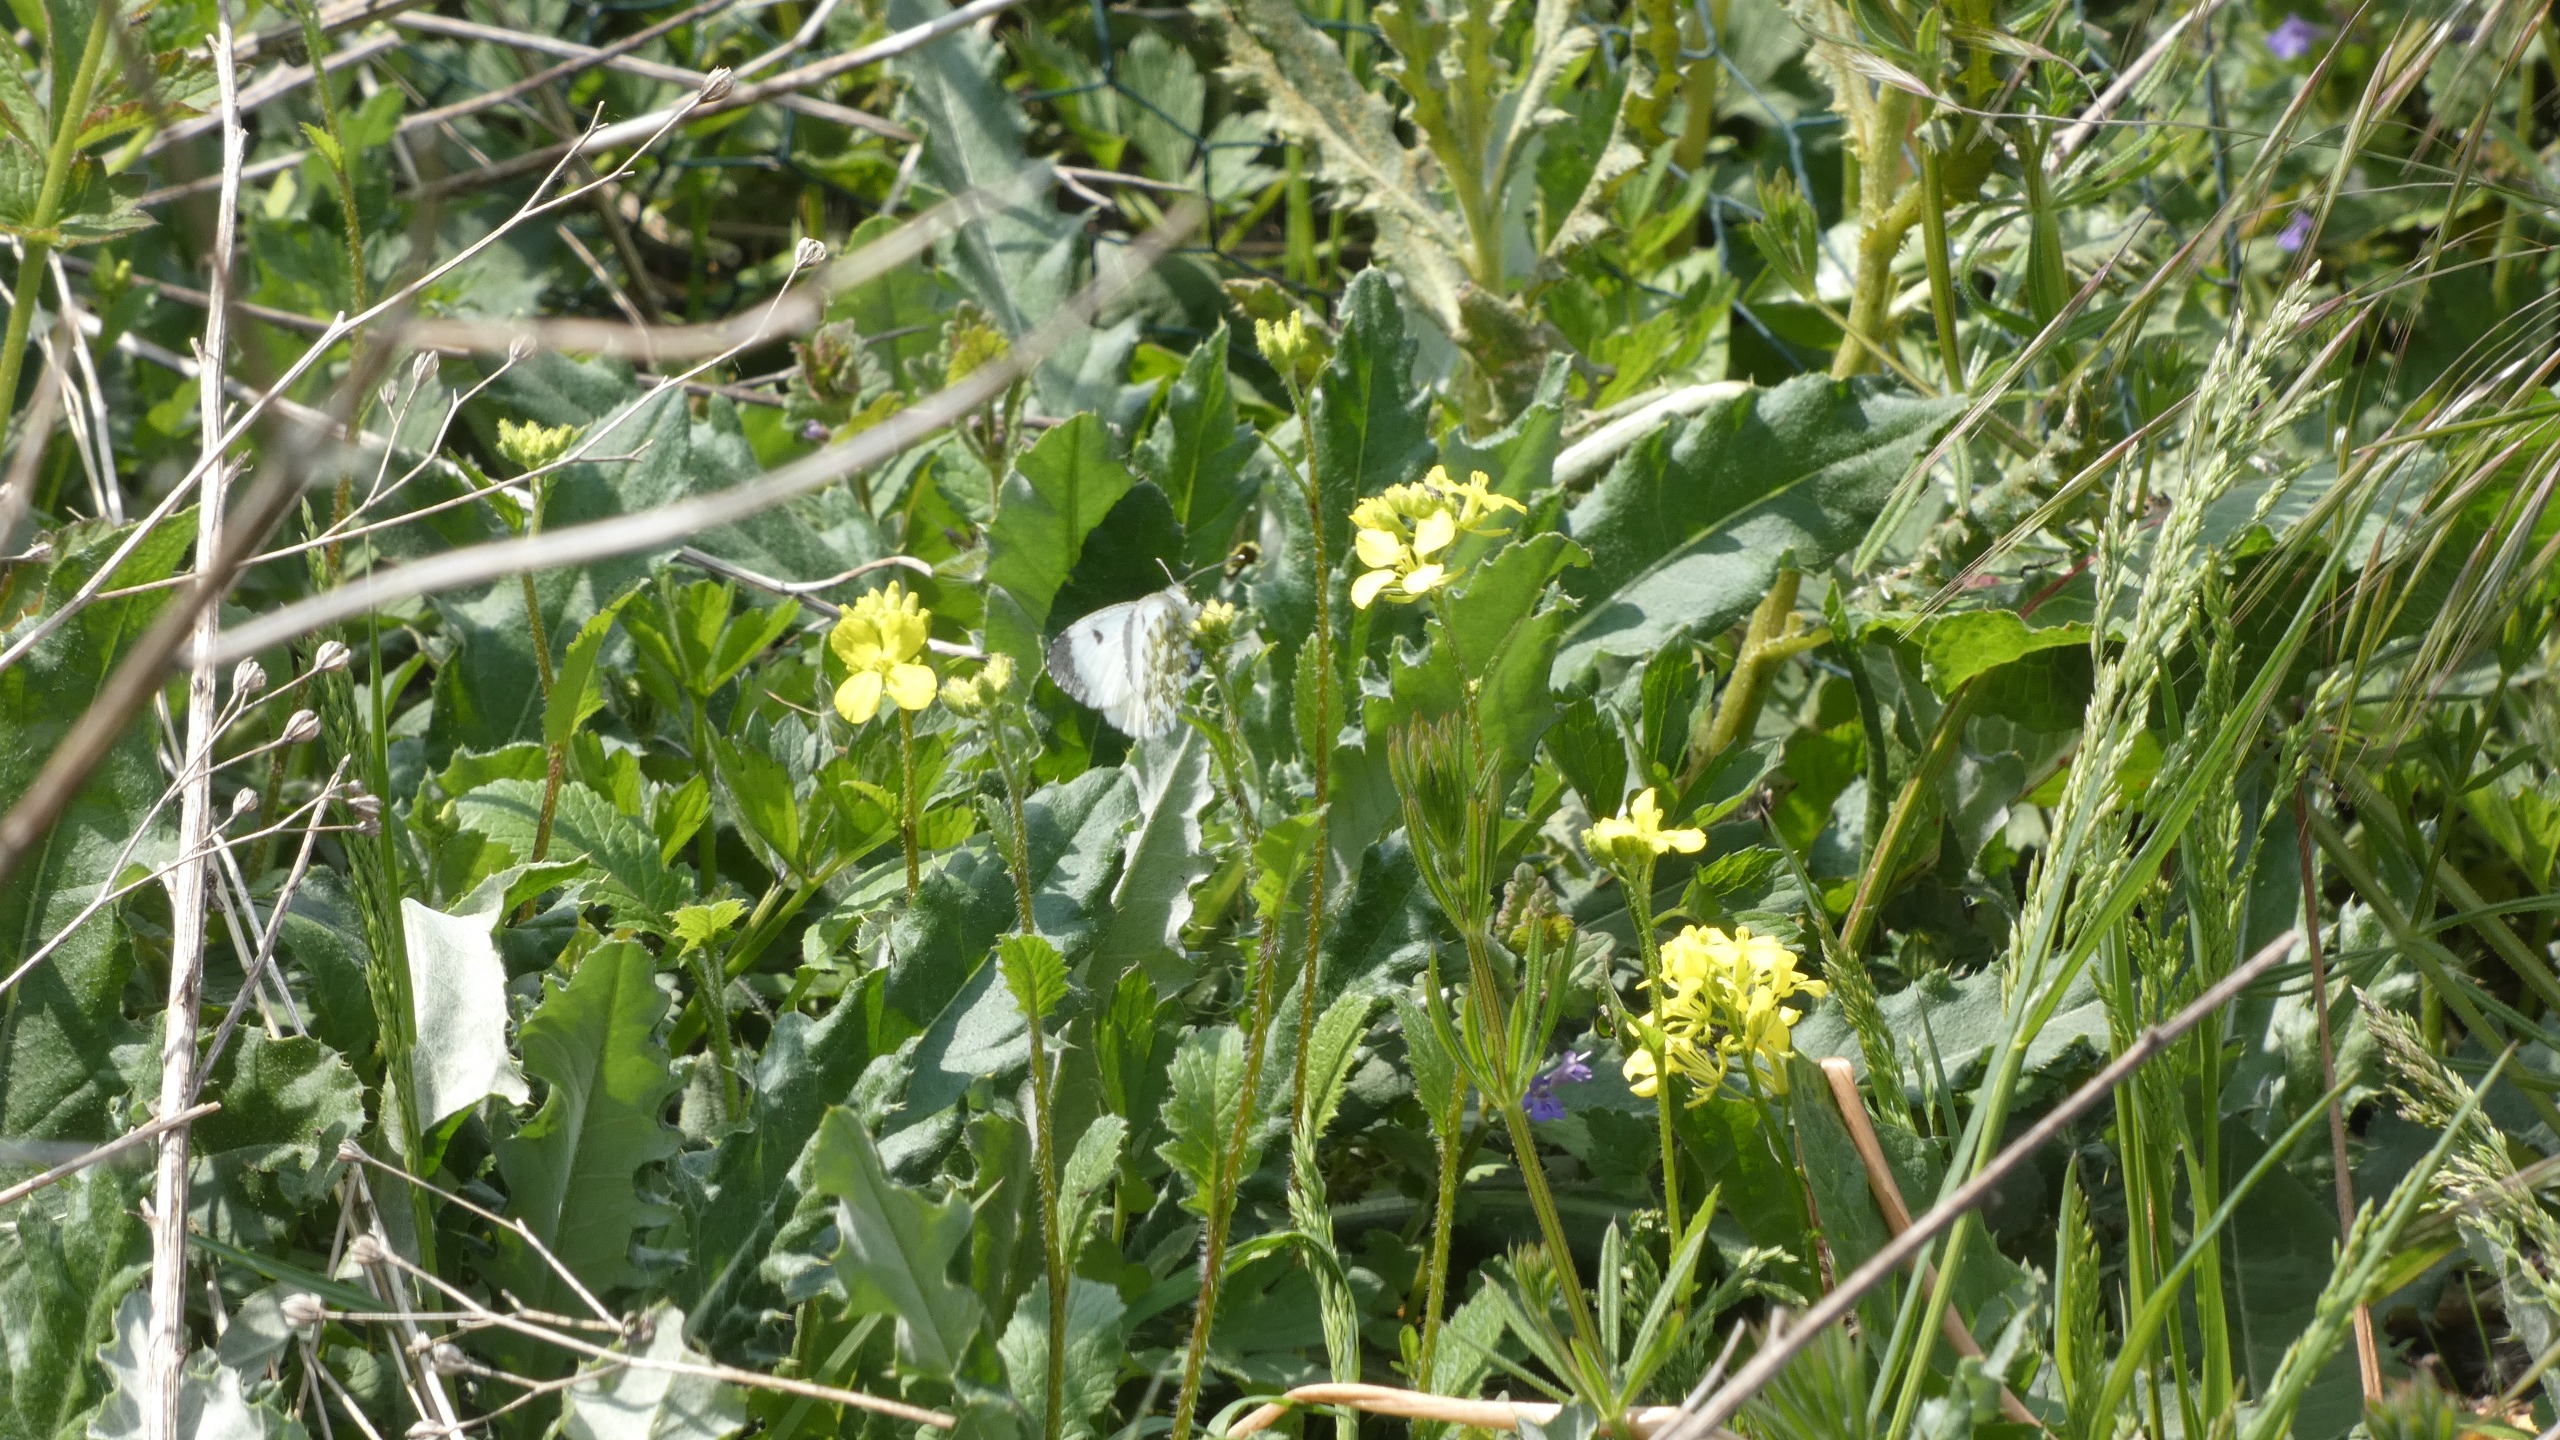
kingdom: Animalia
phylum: Arthropoda
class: Insecta
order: Lepidoptera
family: Pieridae
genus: Anthocharis
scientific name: Anthocharis cardamines
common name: Aurora
